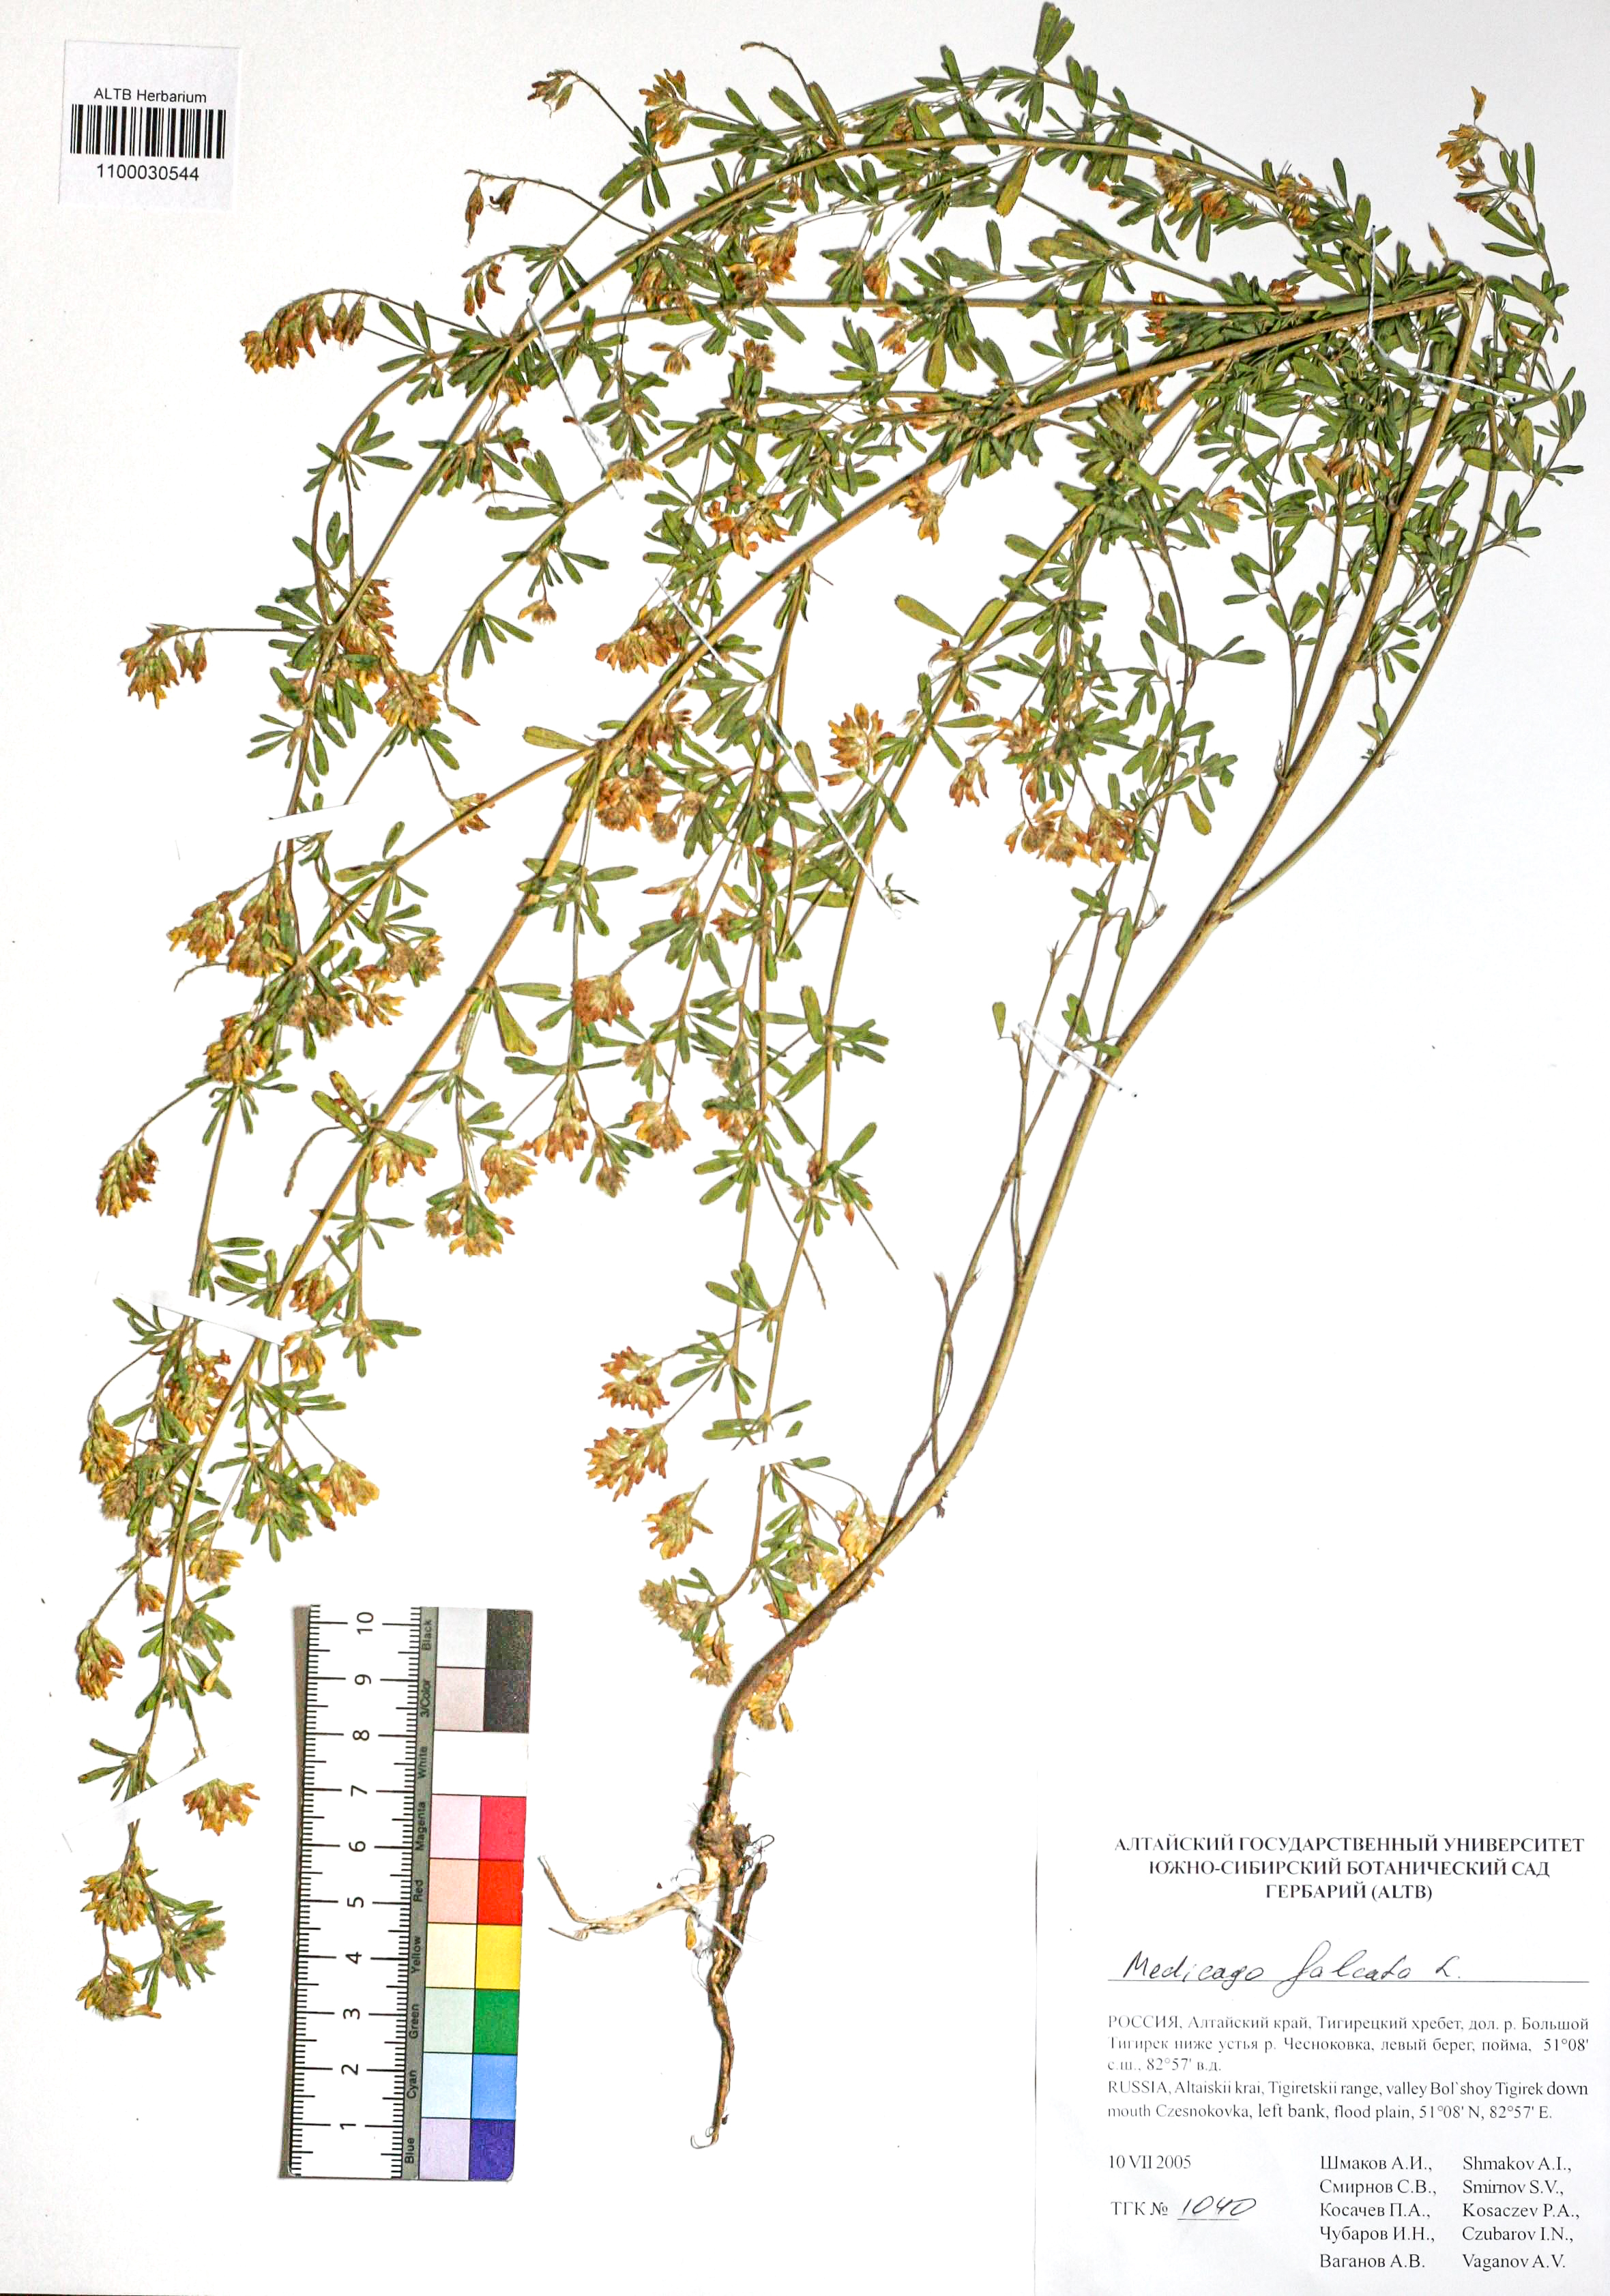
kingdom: Plantae
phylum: Tracheophyta
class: Magnoliopsida
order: Fabales
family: Fabaceae
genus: Medicago
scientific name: Medicago falcata
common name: Sickle medick
